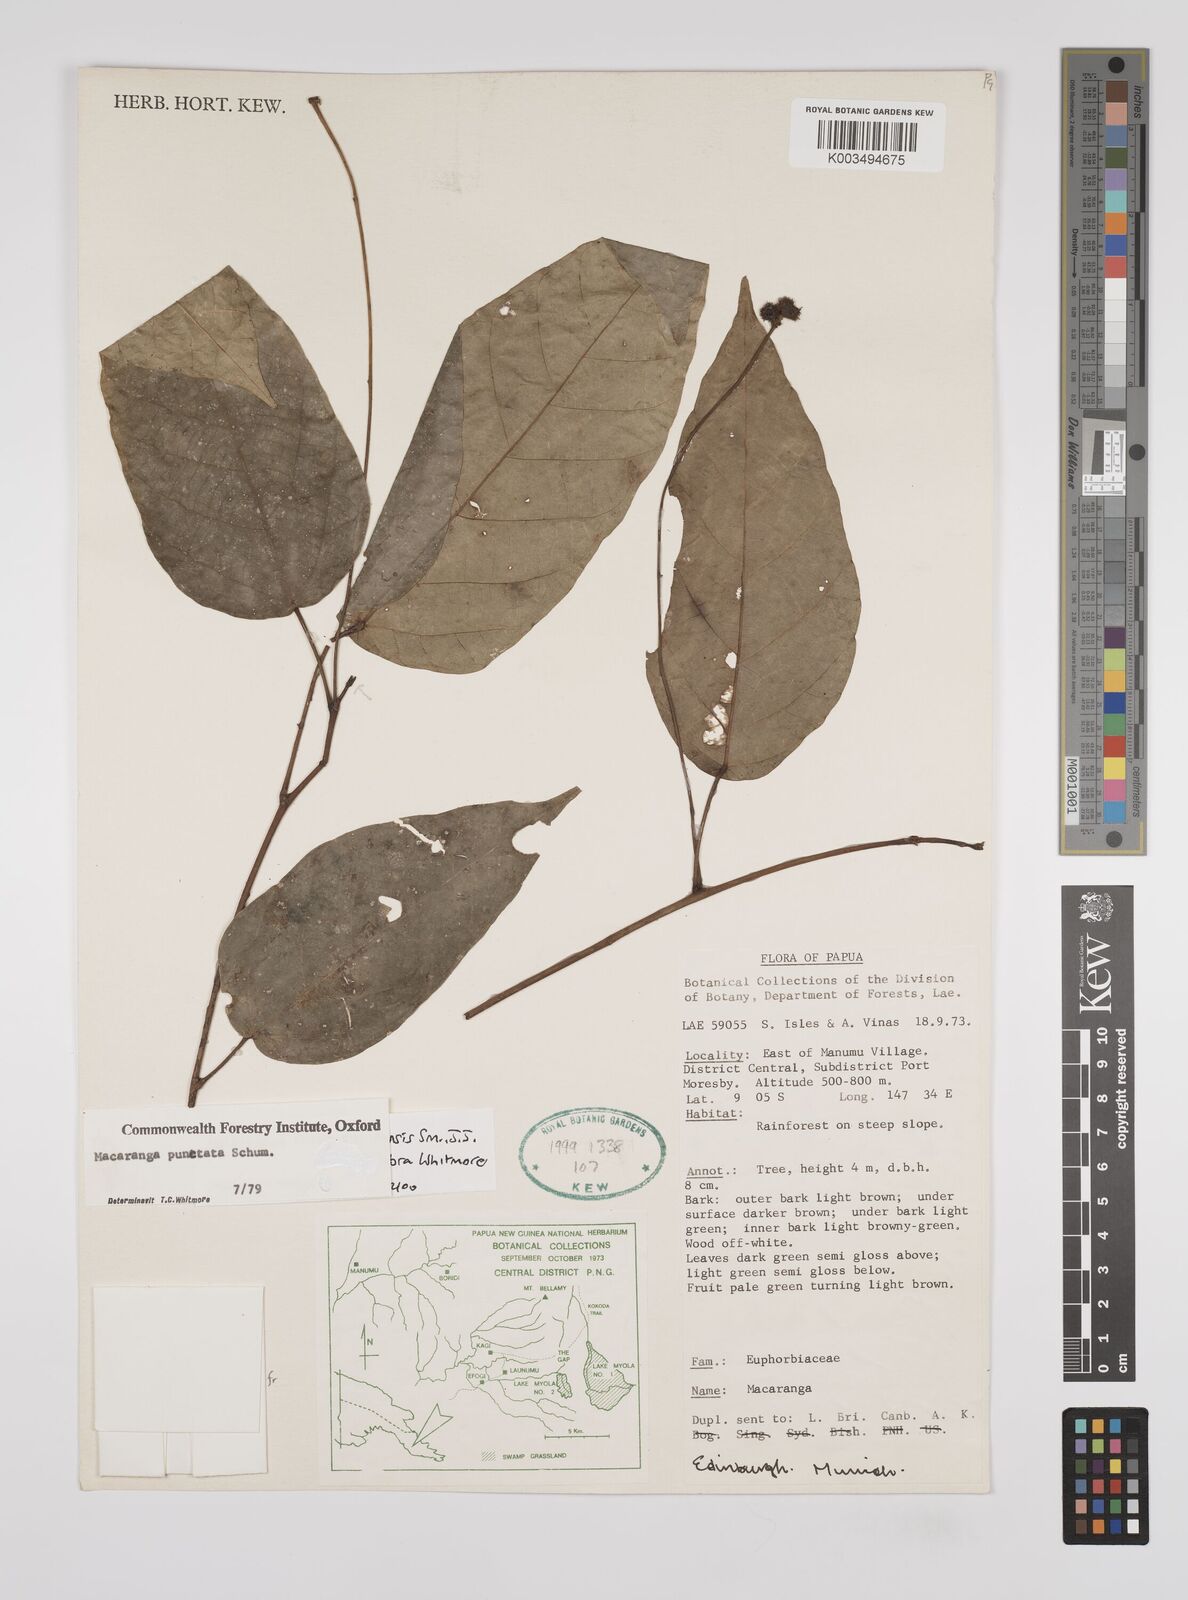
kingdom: Plantae
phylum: Tracheophyta
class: Magnoliopsida
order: Malpighiales
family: Euphorbiaceae
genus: Macaranga
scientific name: Macaranga novoguineensis
